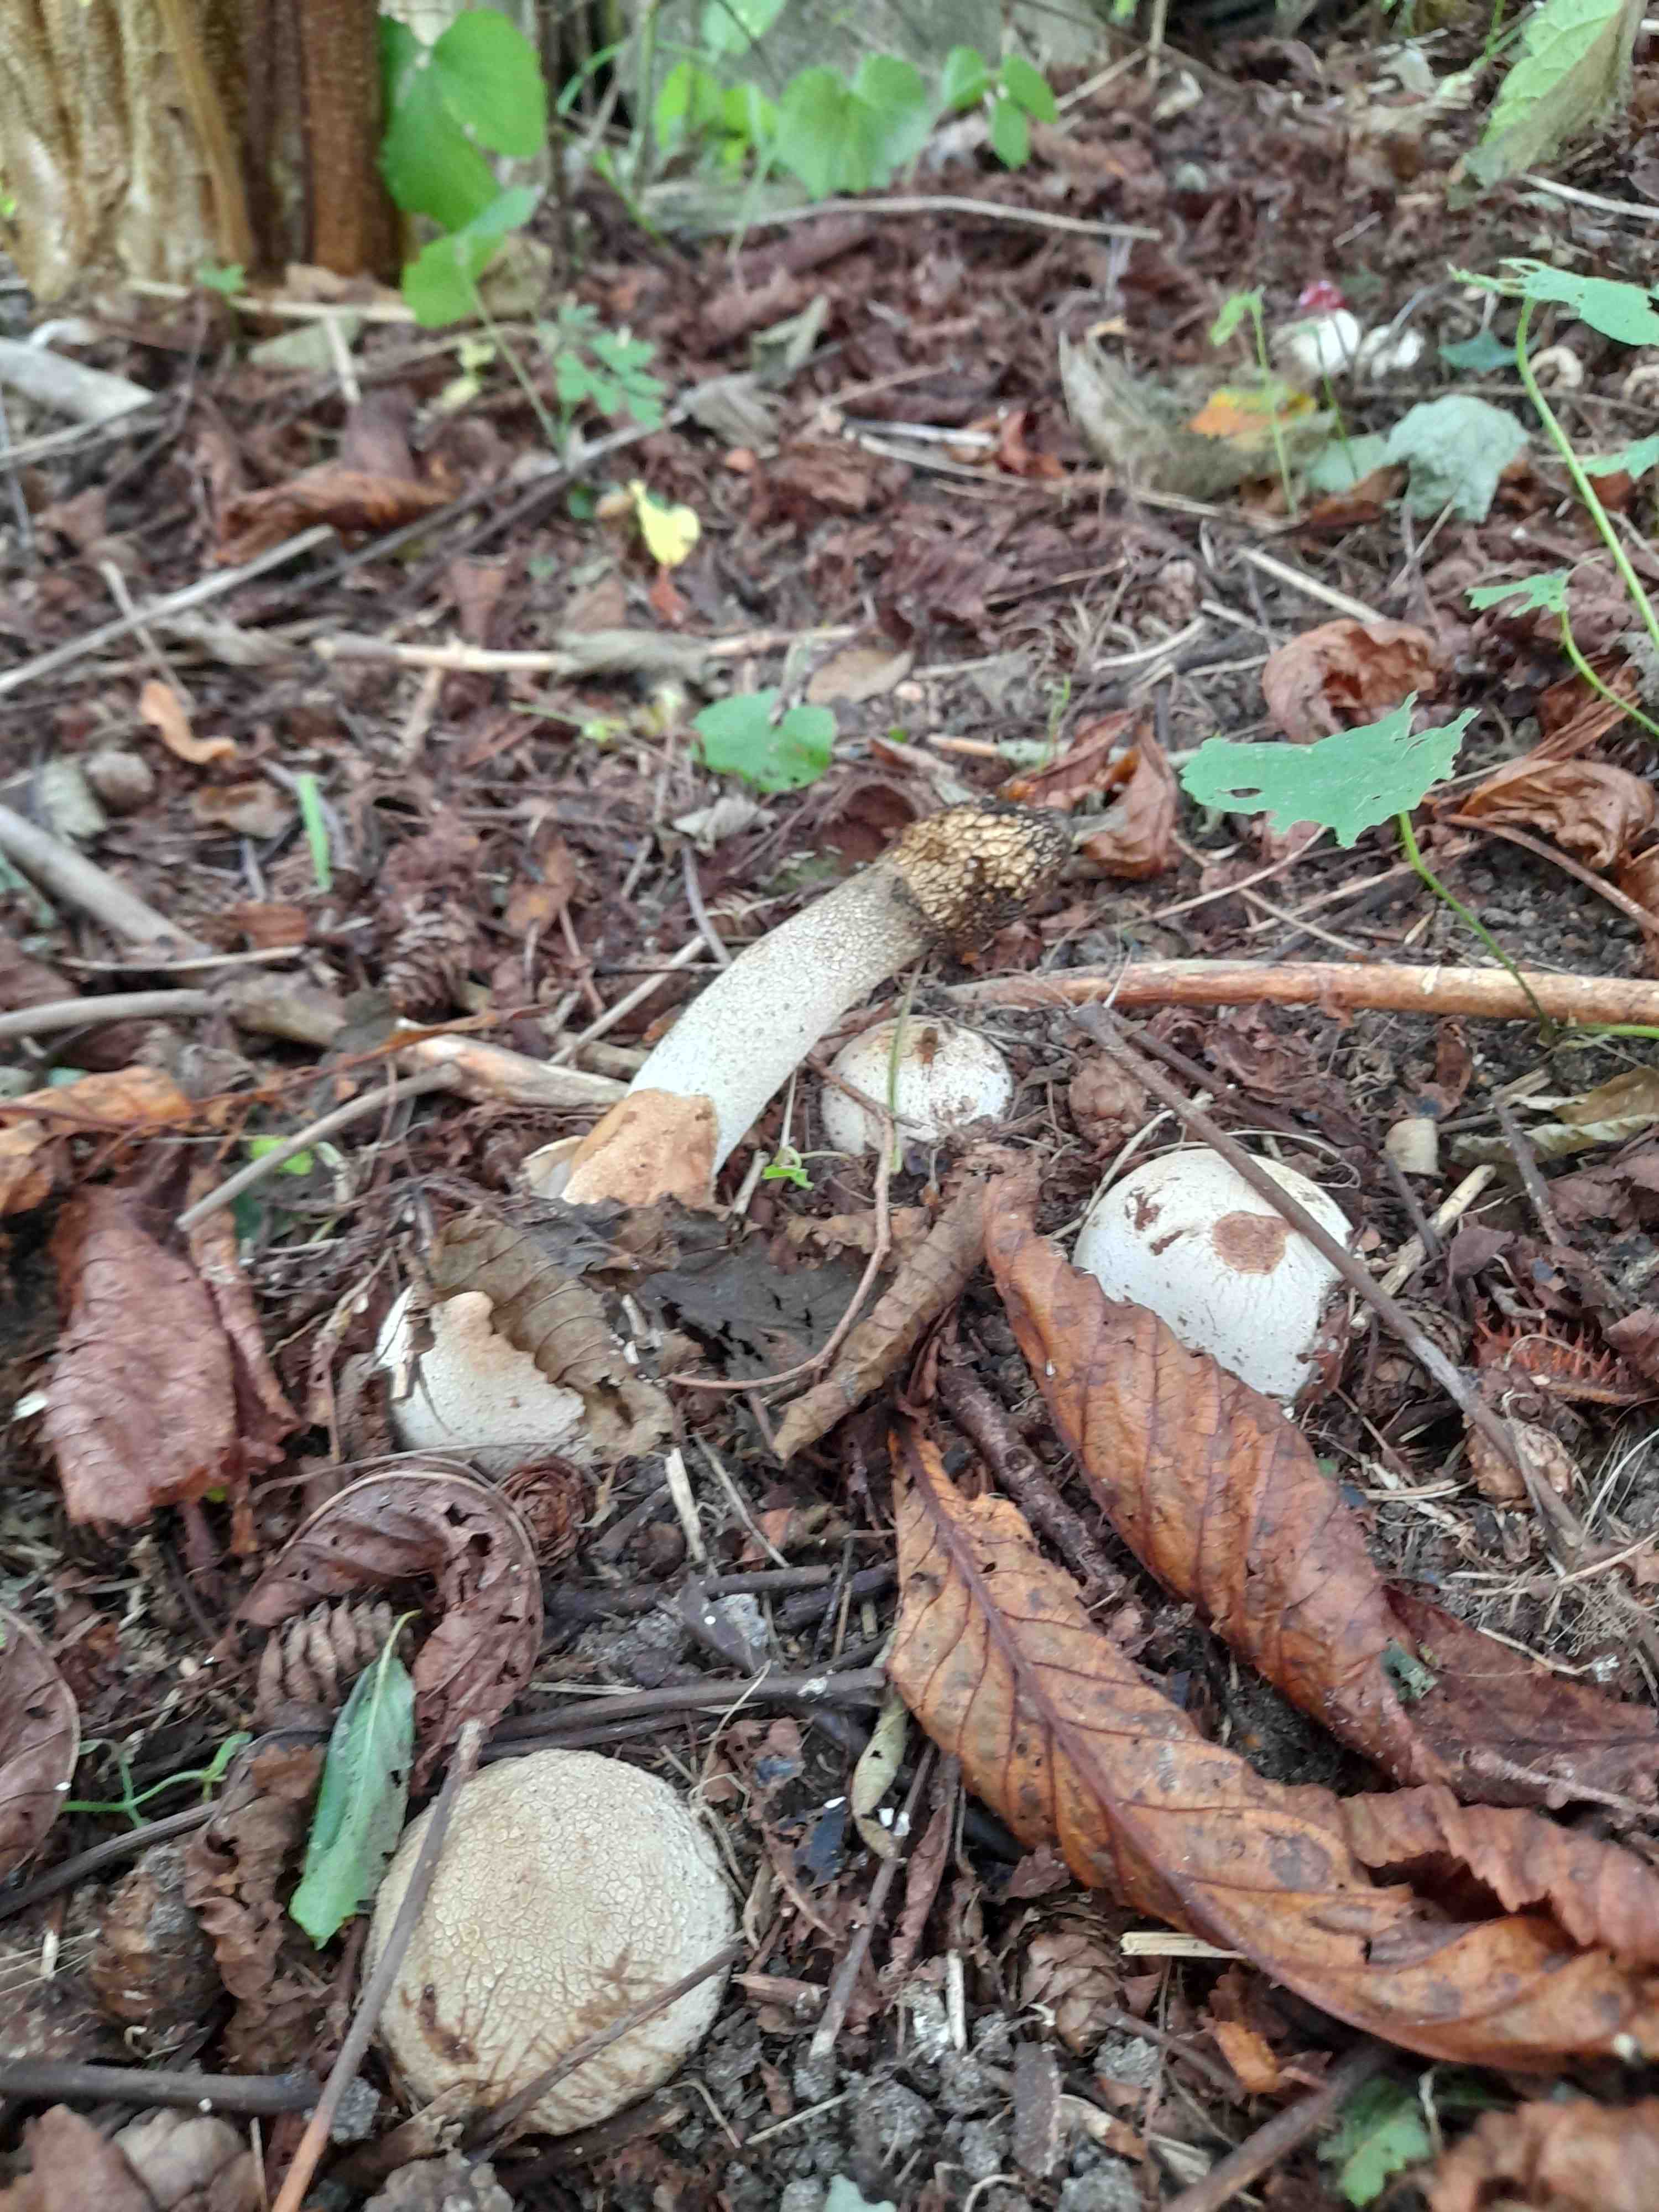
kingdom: Fungi
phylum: Basidiomycota
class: Agaricomycetes
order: Phallales
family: Phallaceae
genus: Phallus
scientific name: Phallus impudicus
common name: almindelig stinksvamp
